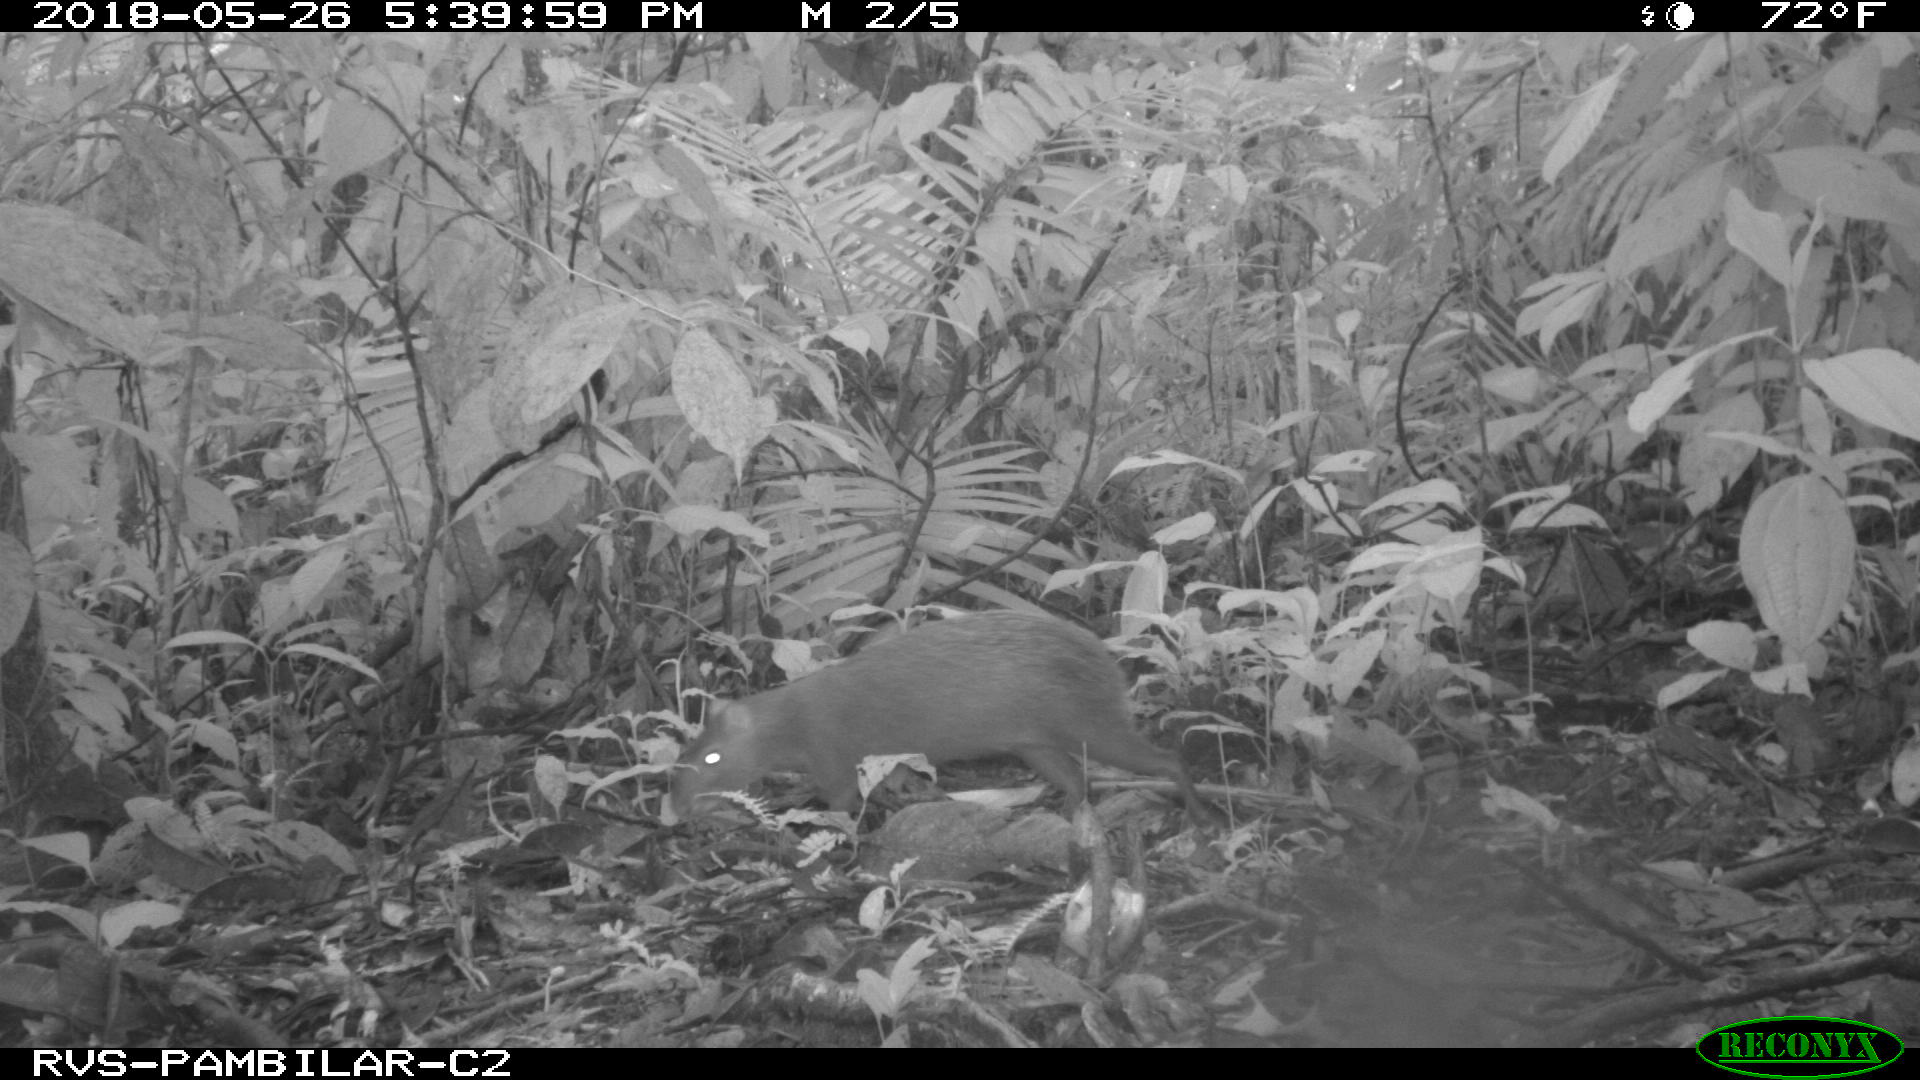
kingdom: Animalia
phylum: Chordata
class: Mammalia
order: Rodentia
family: Dasyproctidae
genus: Dasyprocta
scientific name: Dasyprocta punctata
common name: Central american agouti
